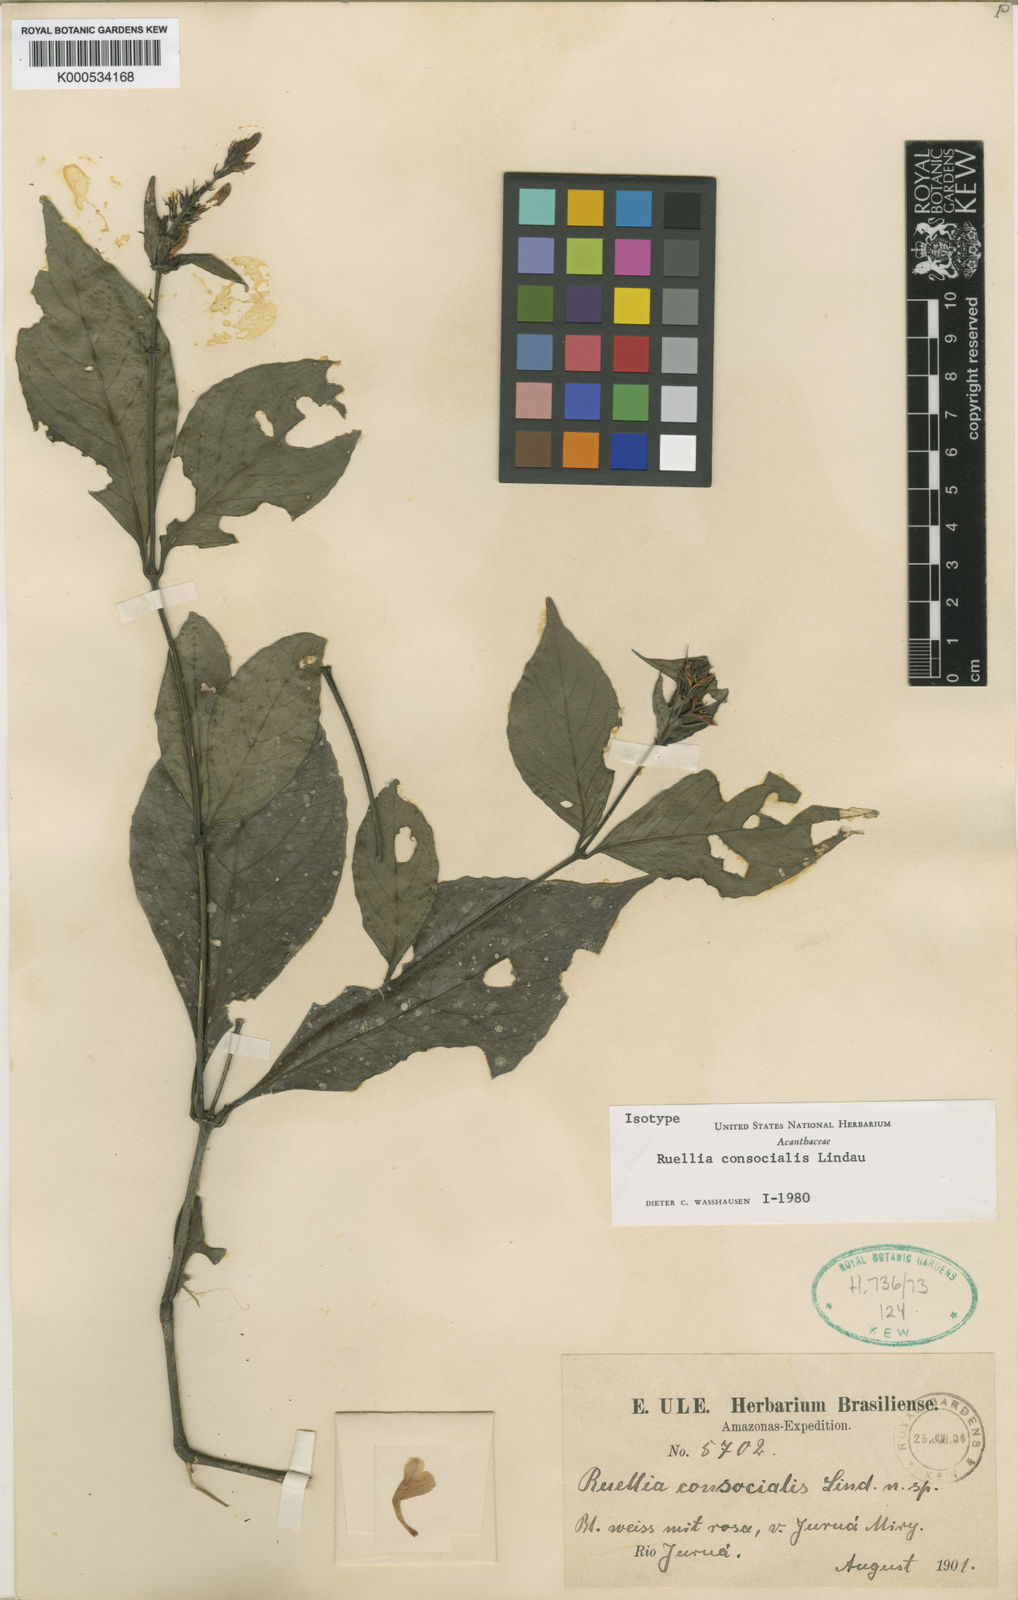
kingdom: Plantae
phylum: Tracheophyta
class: Magnoliopsida
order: Lamiales
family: Acanthaceae
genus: Ruellia
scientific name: Ruellia terminalis
